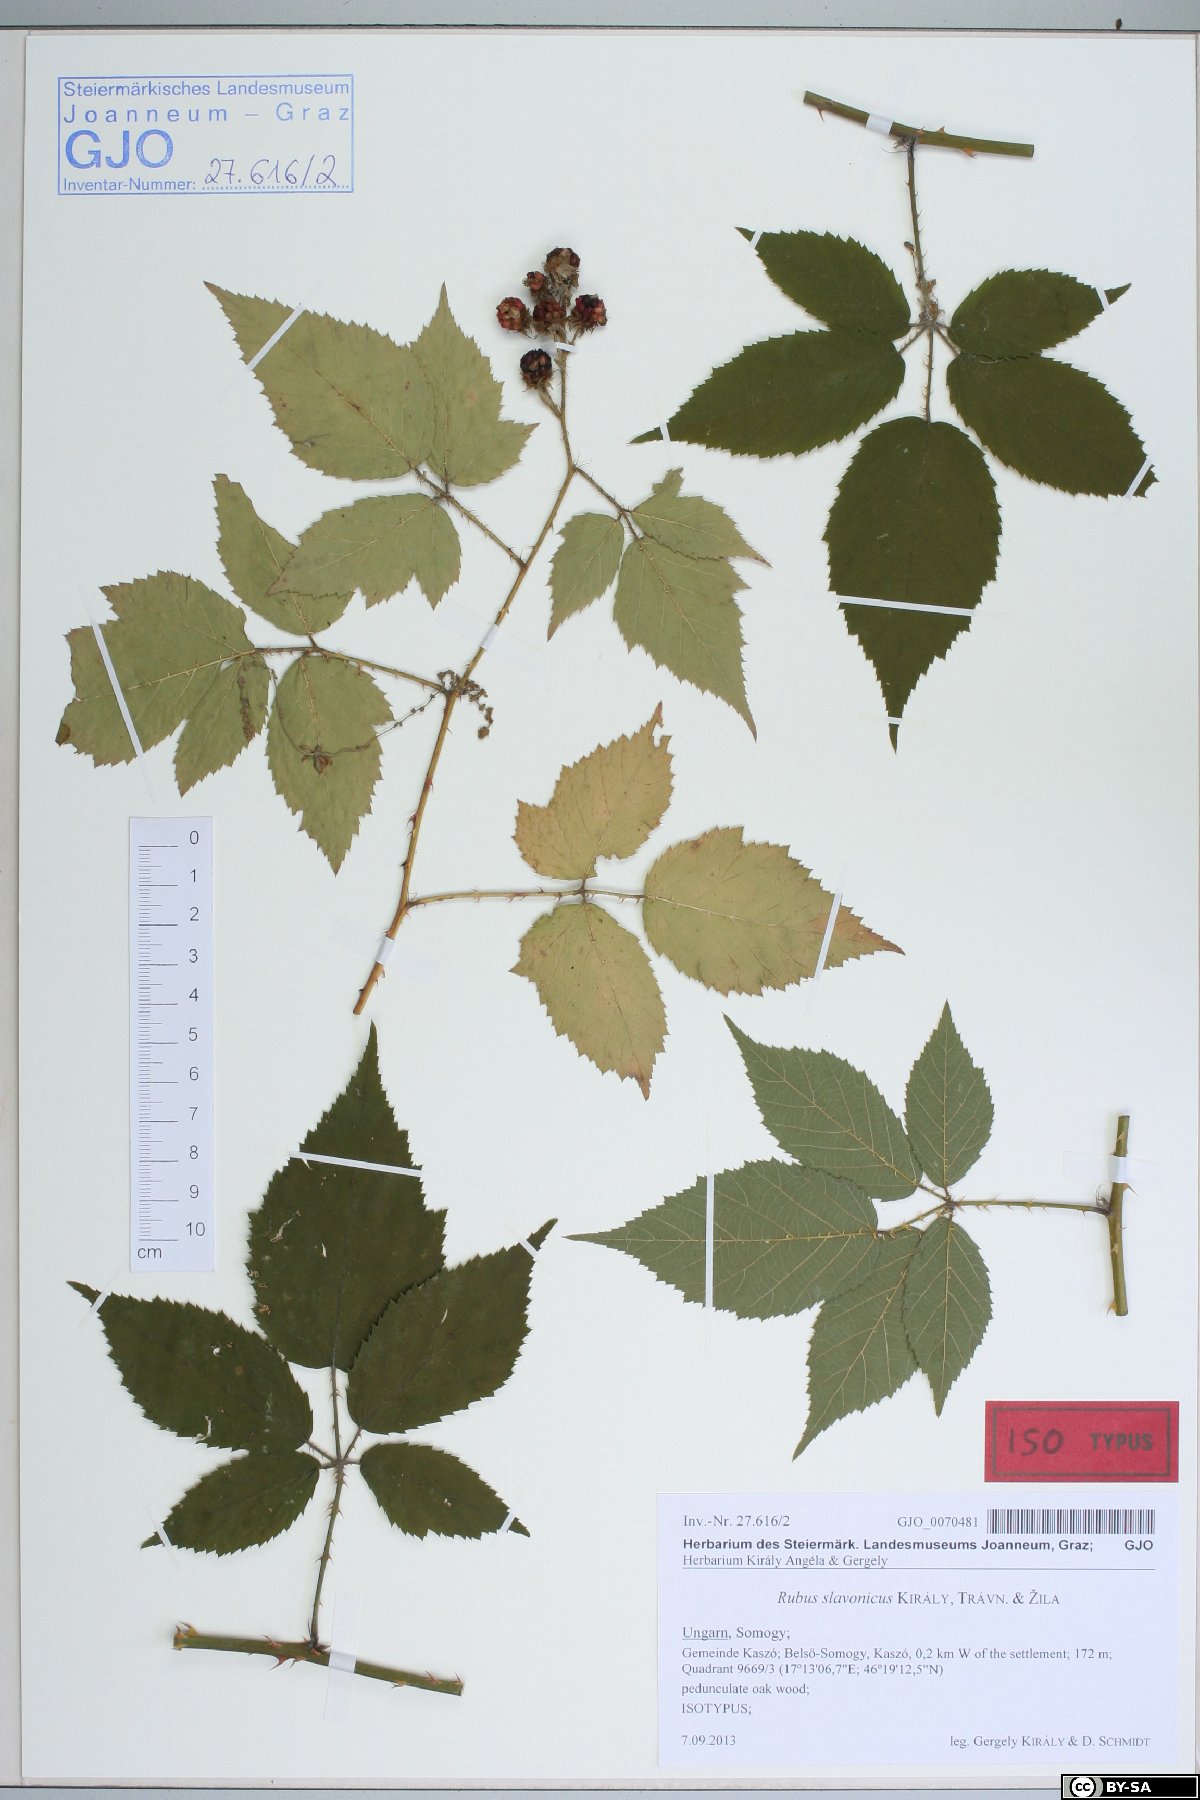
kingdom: Plantae
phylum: Tracheophyta
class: Magnoliopsida
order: Rosales
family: Rosaceae
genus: Rubus
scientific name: Rubus slavonicus
